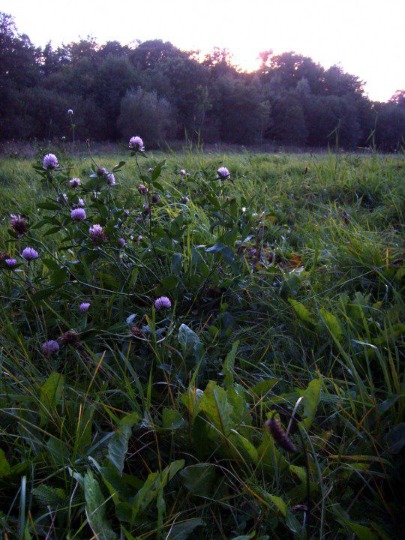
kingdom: Plantae
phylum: Tracheophyta
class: Magnoliopsida
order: Fabales
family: Fabaceae
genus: Trifolium
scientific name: Trifolium pratense
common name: Rød-kløver
